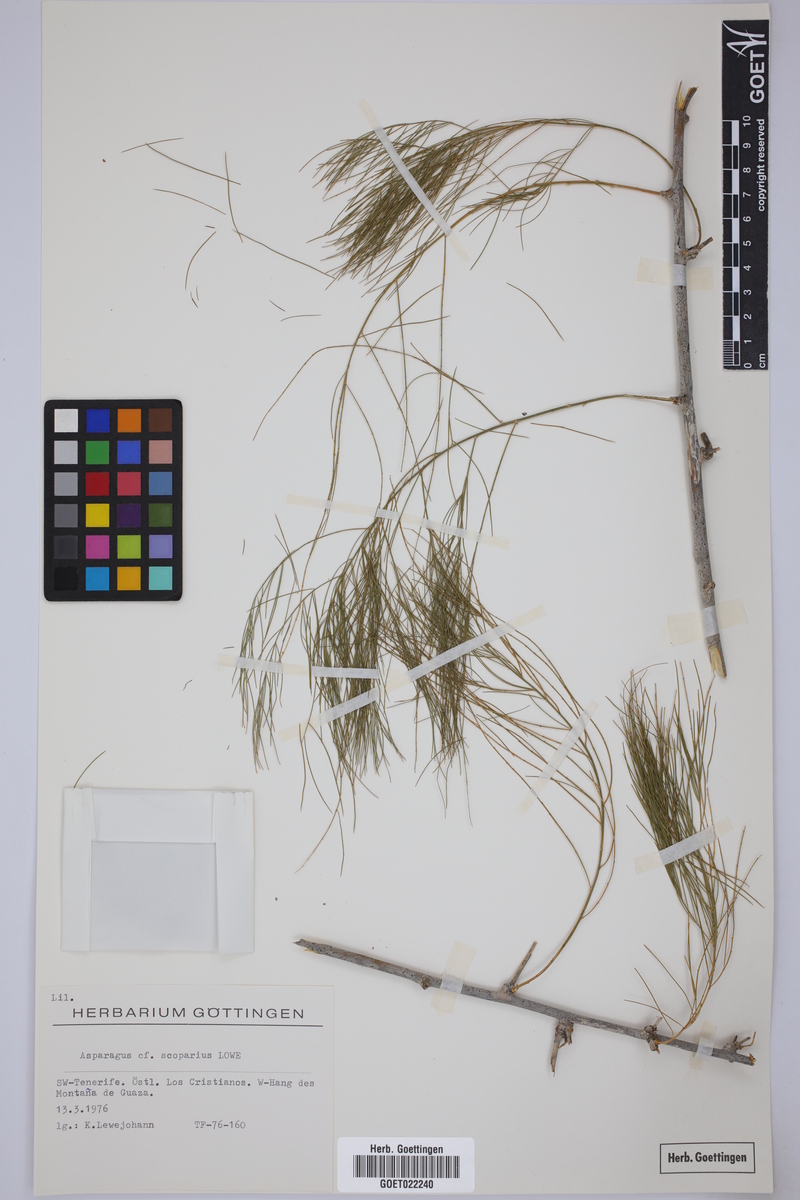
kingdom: Plantae
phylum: Tracheophyta
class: Liliopsida
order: Asparagales
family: Asparagaceae
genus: Asparagus
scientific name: Asparagus scoparius
